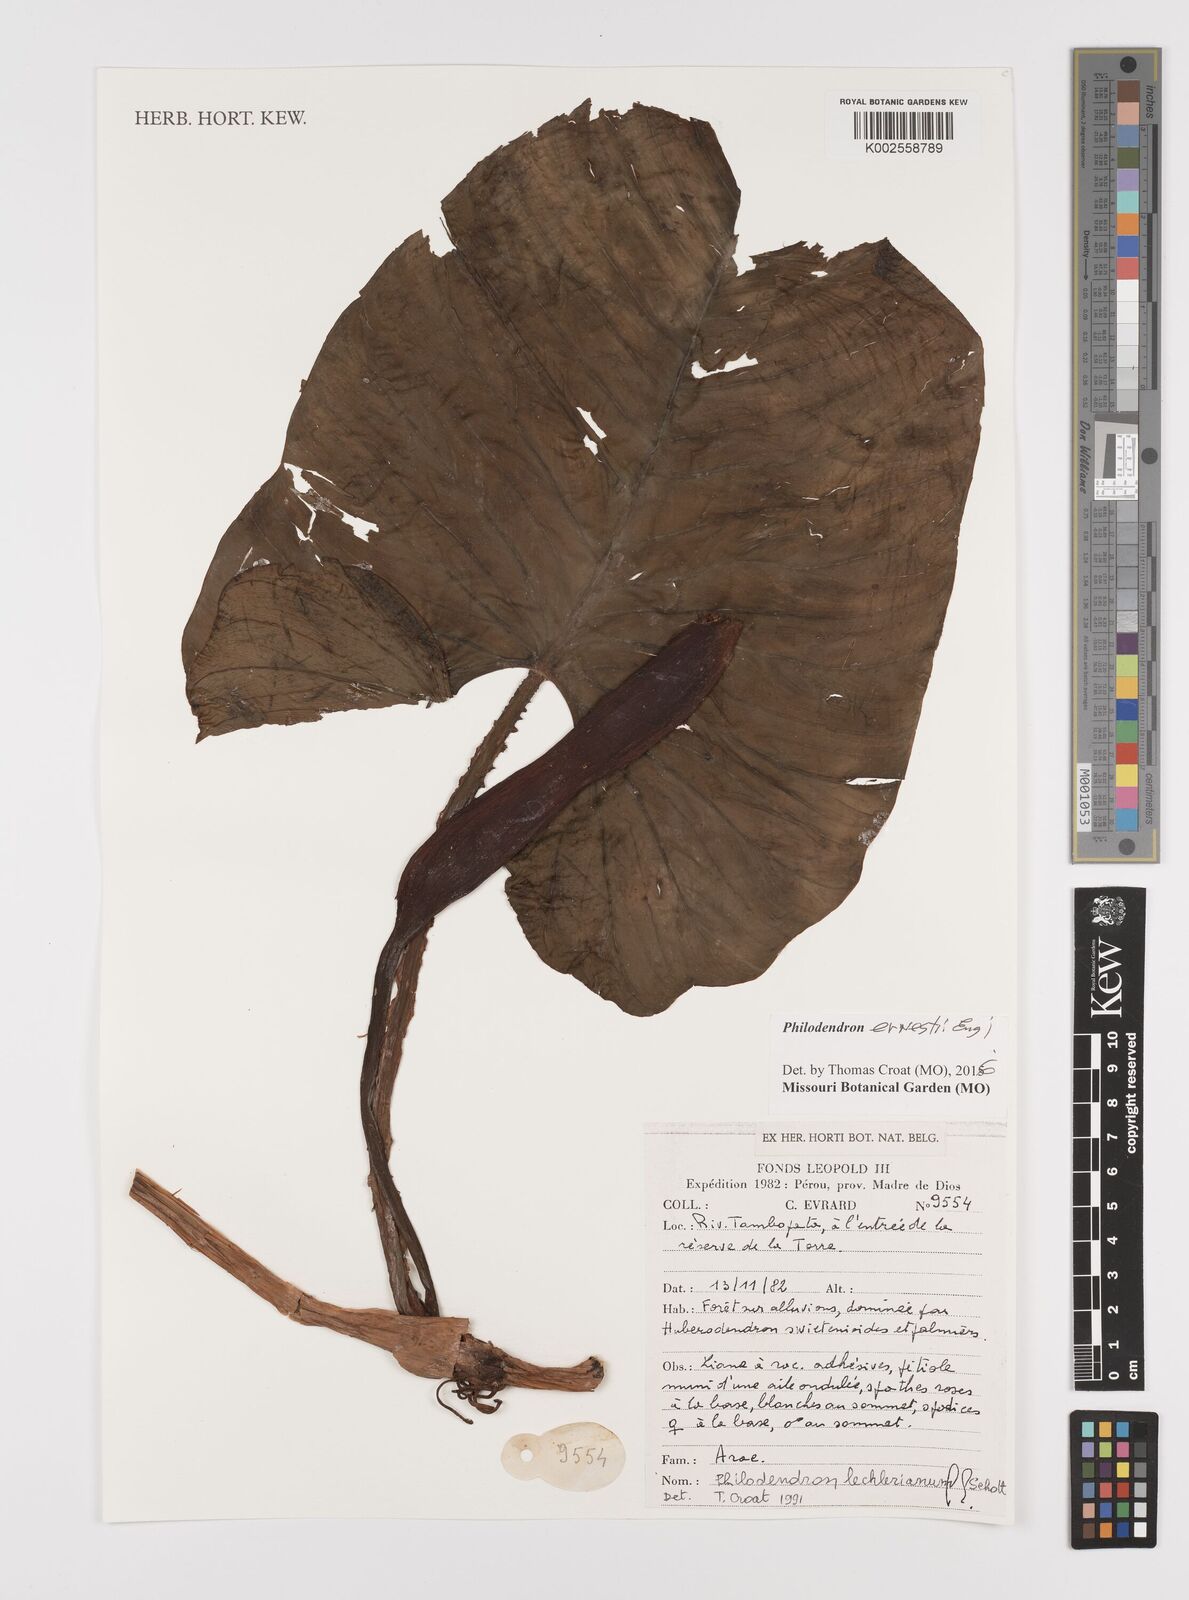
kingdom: Plantae
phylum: Tracheophyta
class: Liliopsida
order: Alismatales
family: Araceae
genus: Philodendron
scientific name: Philodendron ernestii
